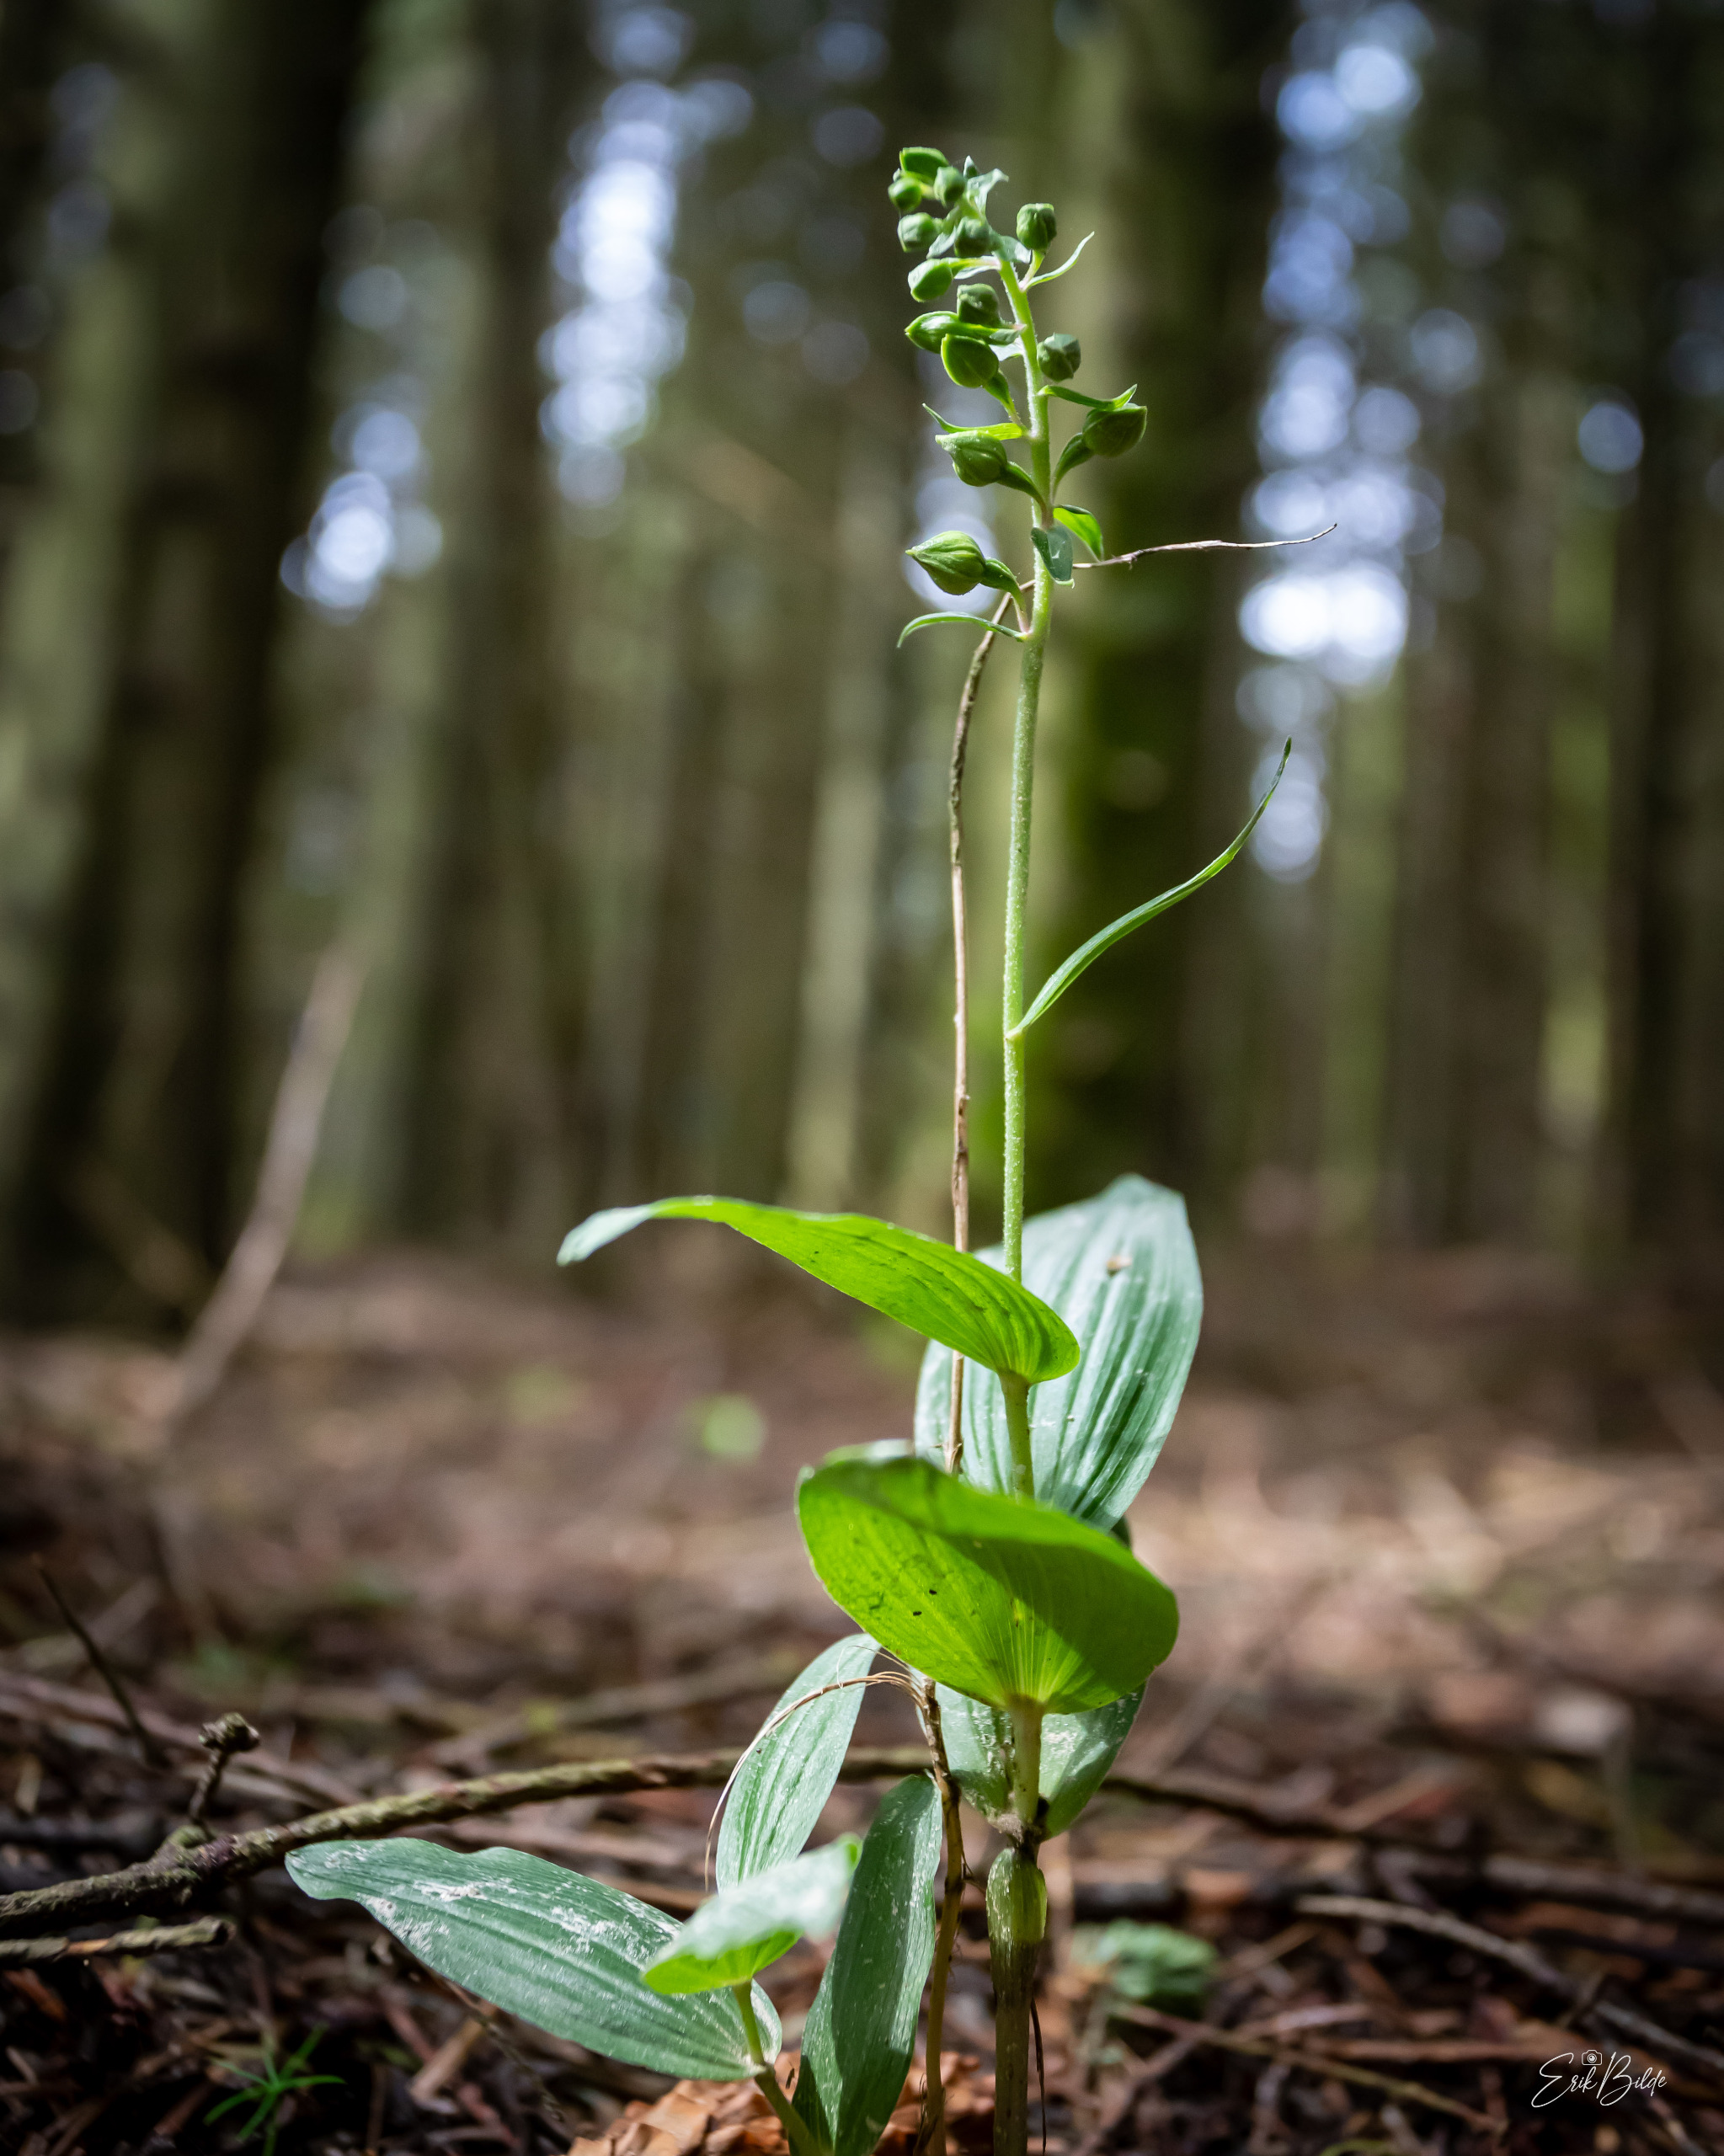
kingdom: Plantae
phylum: Tracheophyta
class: Liliopsida
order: Asparagales
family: Orchidaceae
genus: Epipactis
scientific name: Epipactis helleborine
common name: Skov-hullæbe
